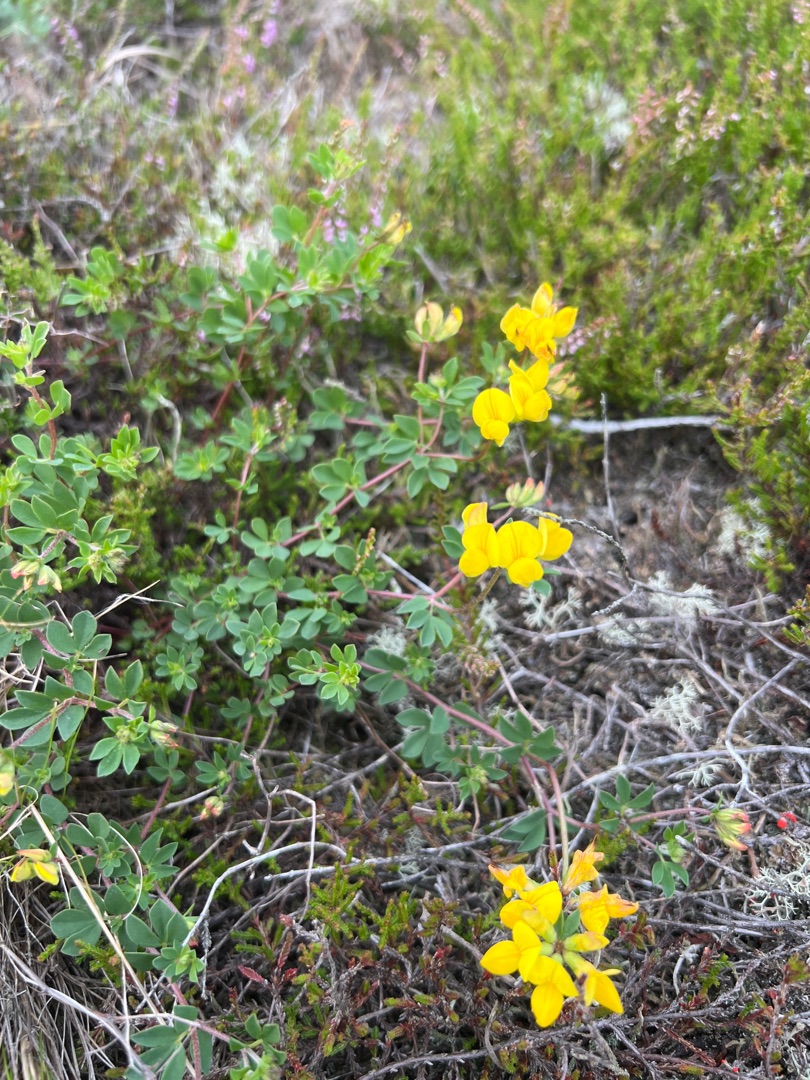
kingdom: Plantae
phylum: Tracheophyta
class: Magnoliopsida
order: Fabales
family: Fabaceae
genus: Lotus
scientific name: Lotus corniculatus
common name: Almindelig kællingetand
